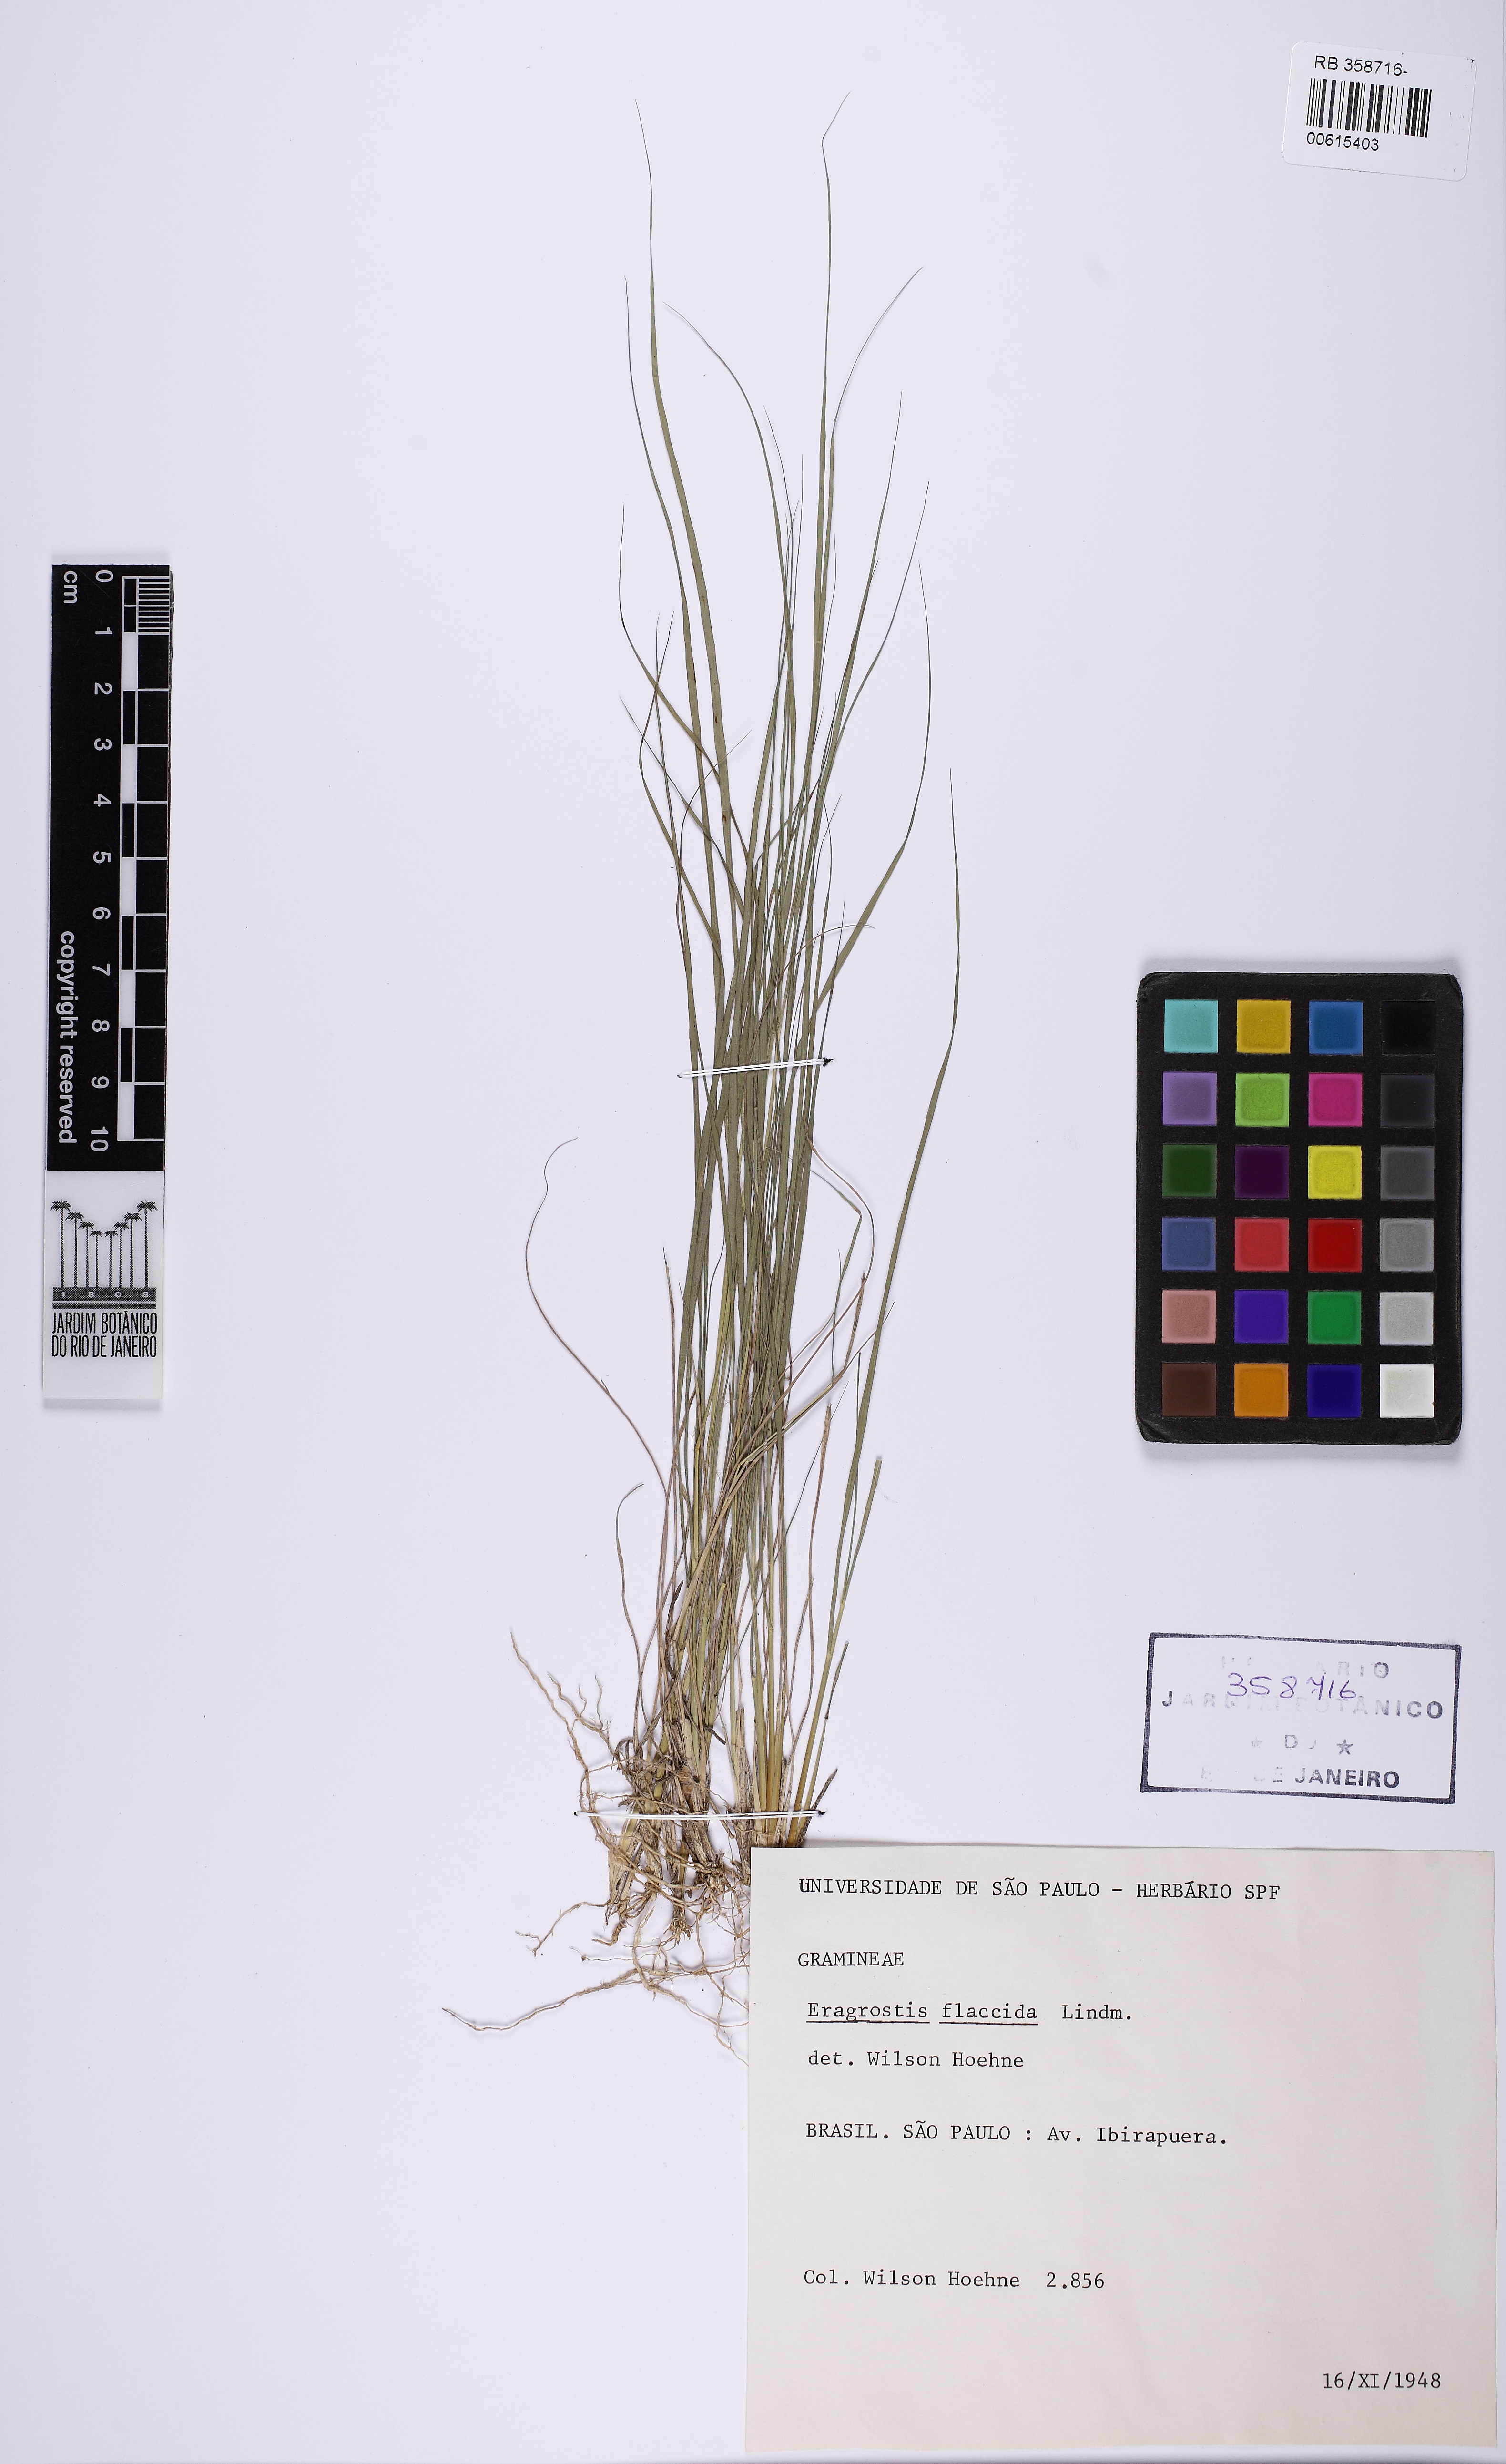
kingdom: Plantae
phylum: Tracheophyta
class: Liliopsida
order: Poales
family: Poaceae
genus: Eragrostis
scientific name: Eragrostis lugens
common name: Mourning love grass
